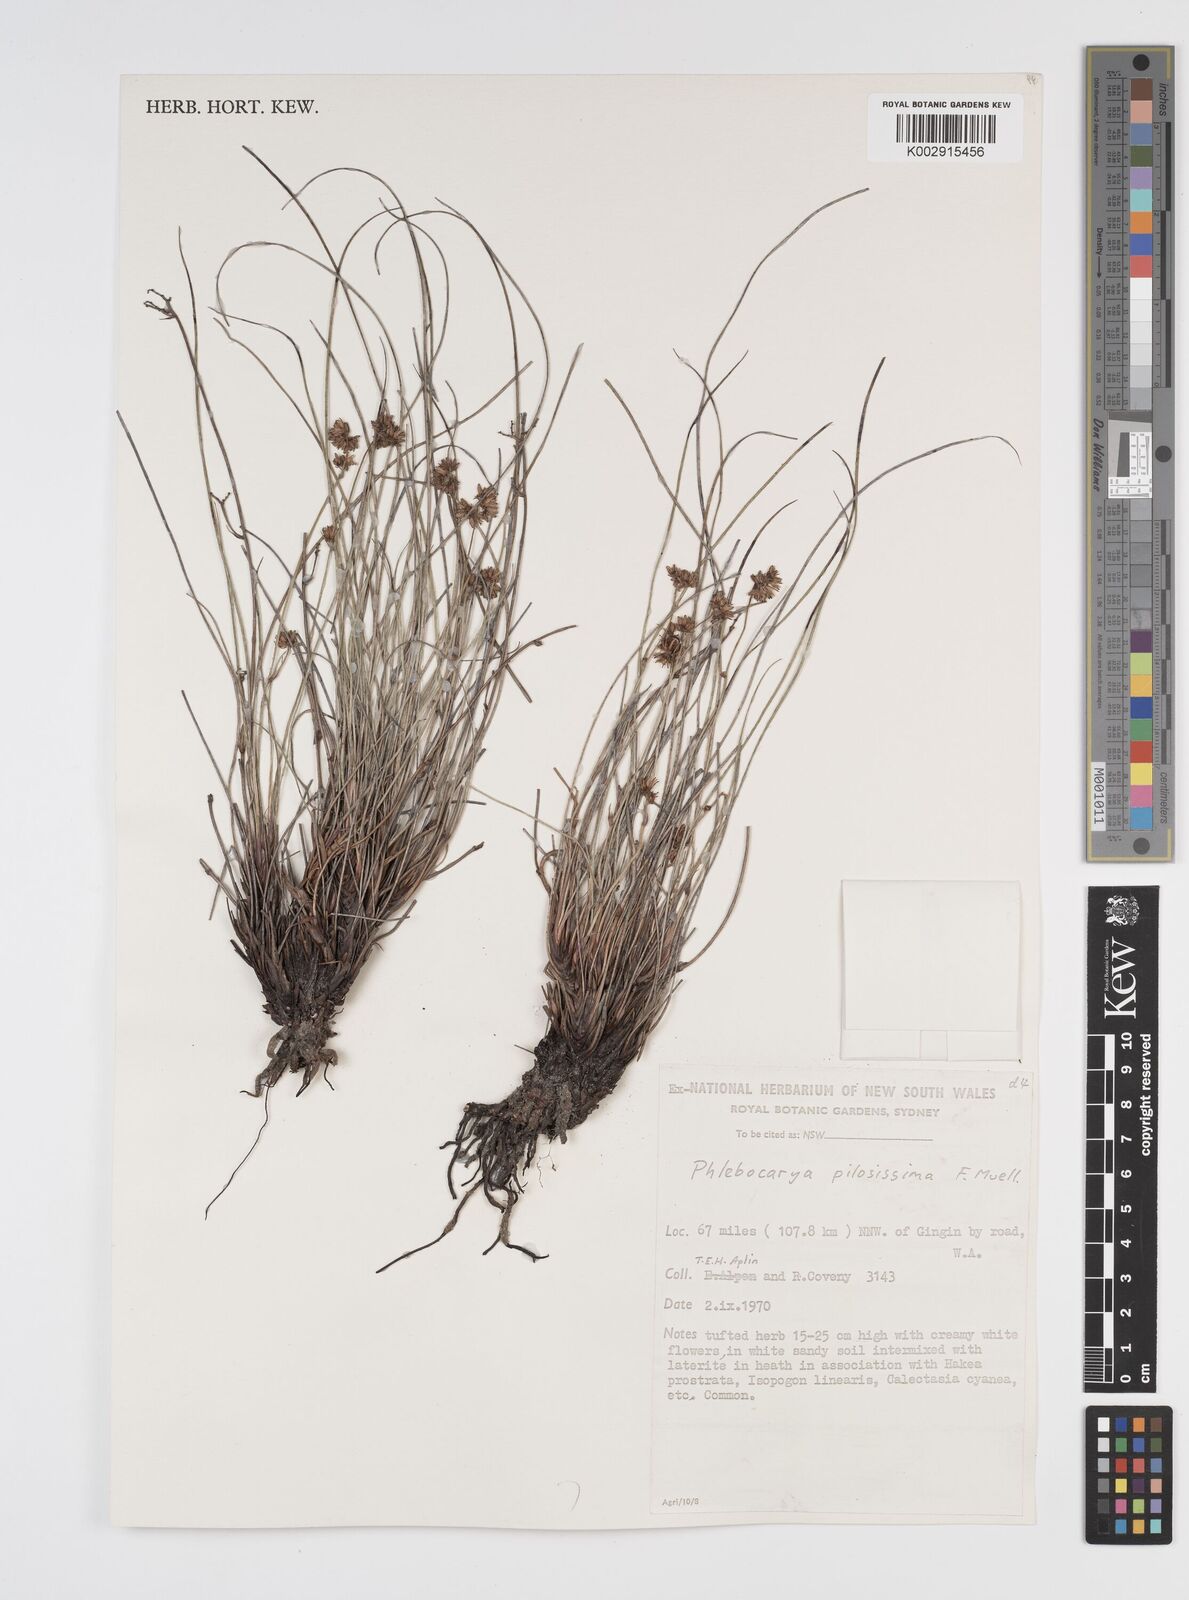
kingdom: Plantae
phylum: Tracheophyta
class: Liliopsida
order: Commelinales
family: Haemodoraceae
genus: Phlebocarya
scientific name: Phlebocarya pilosissima
